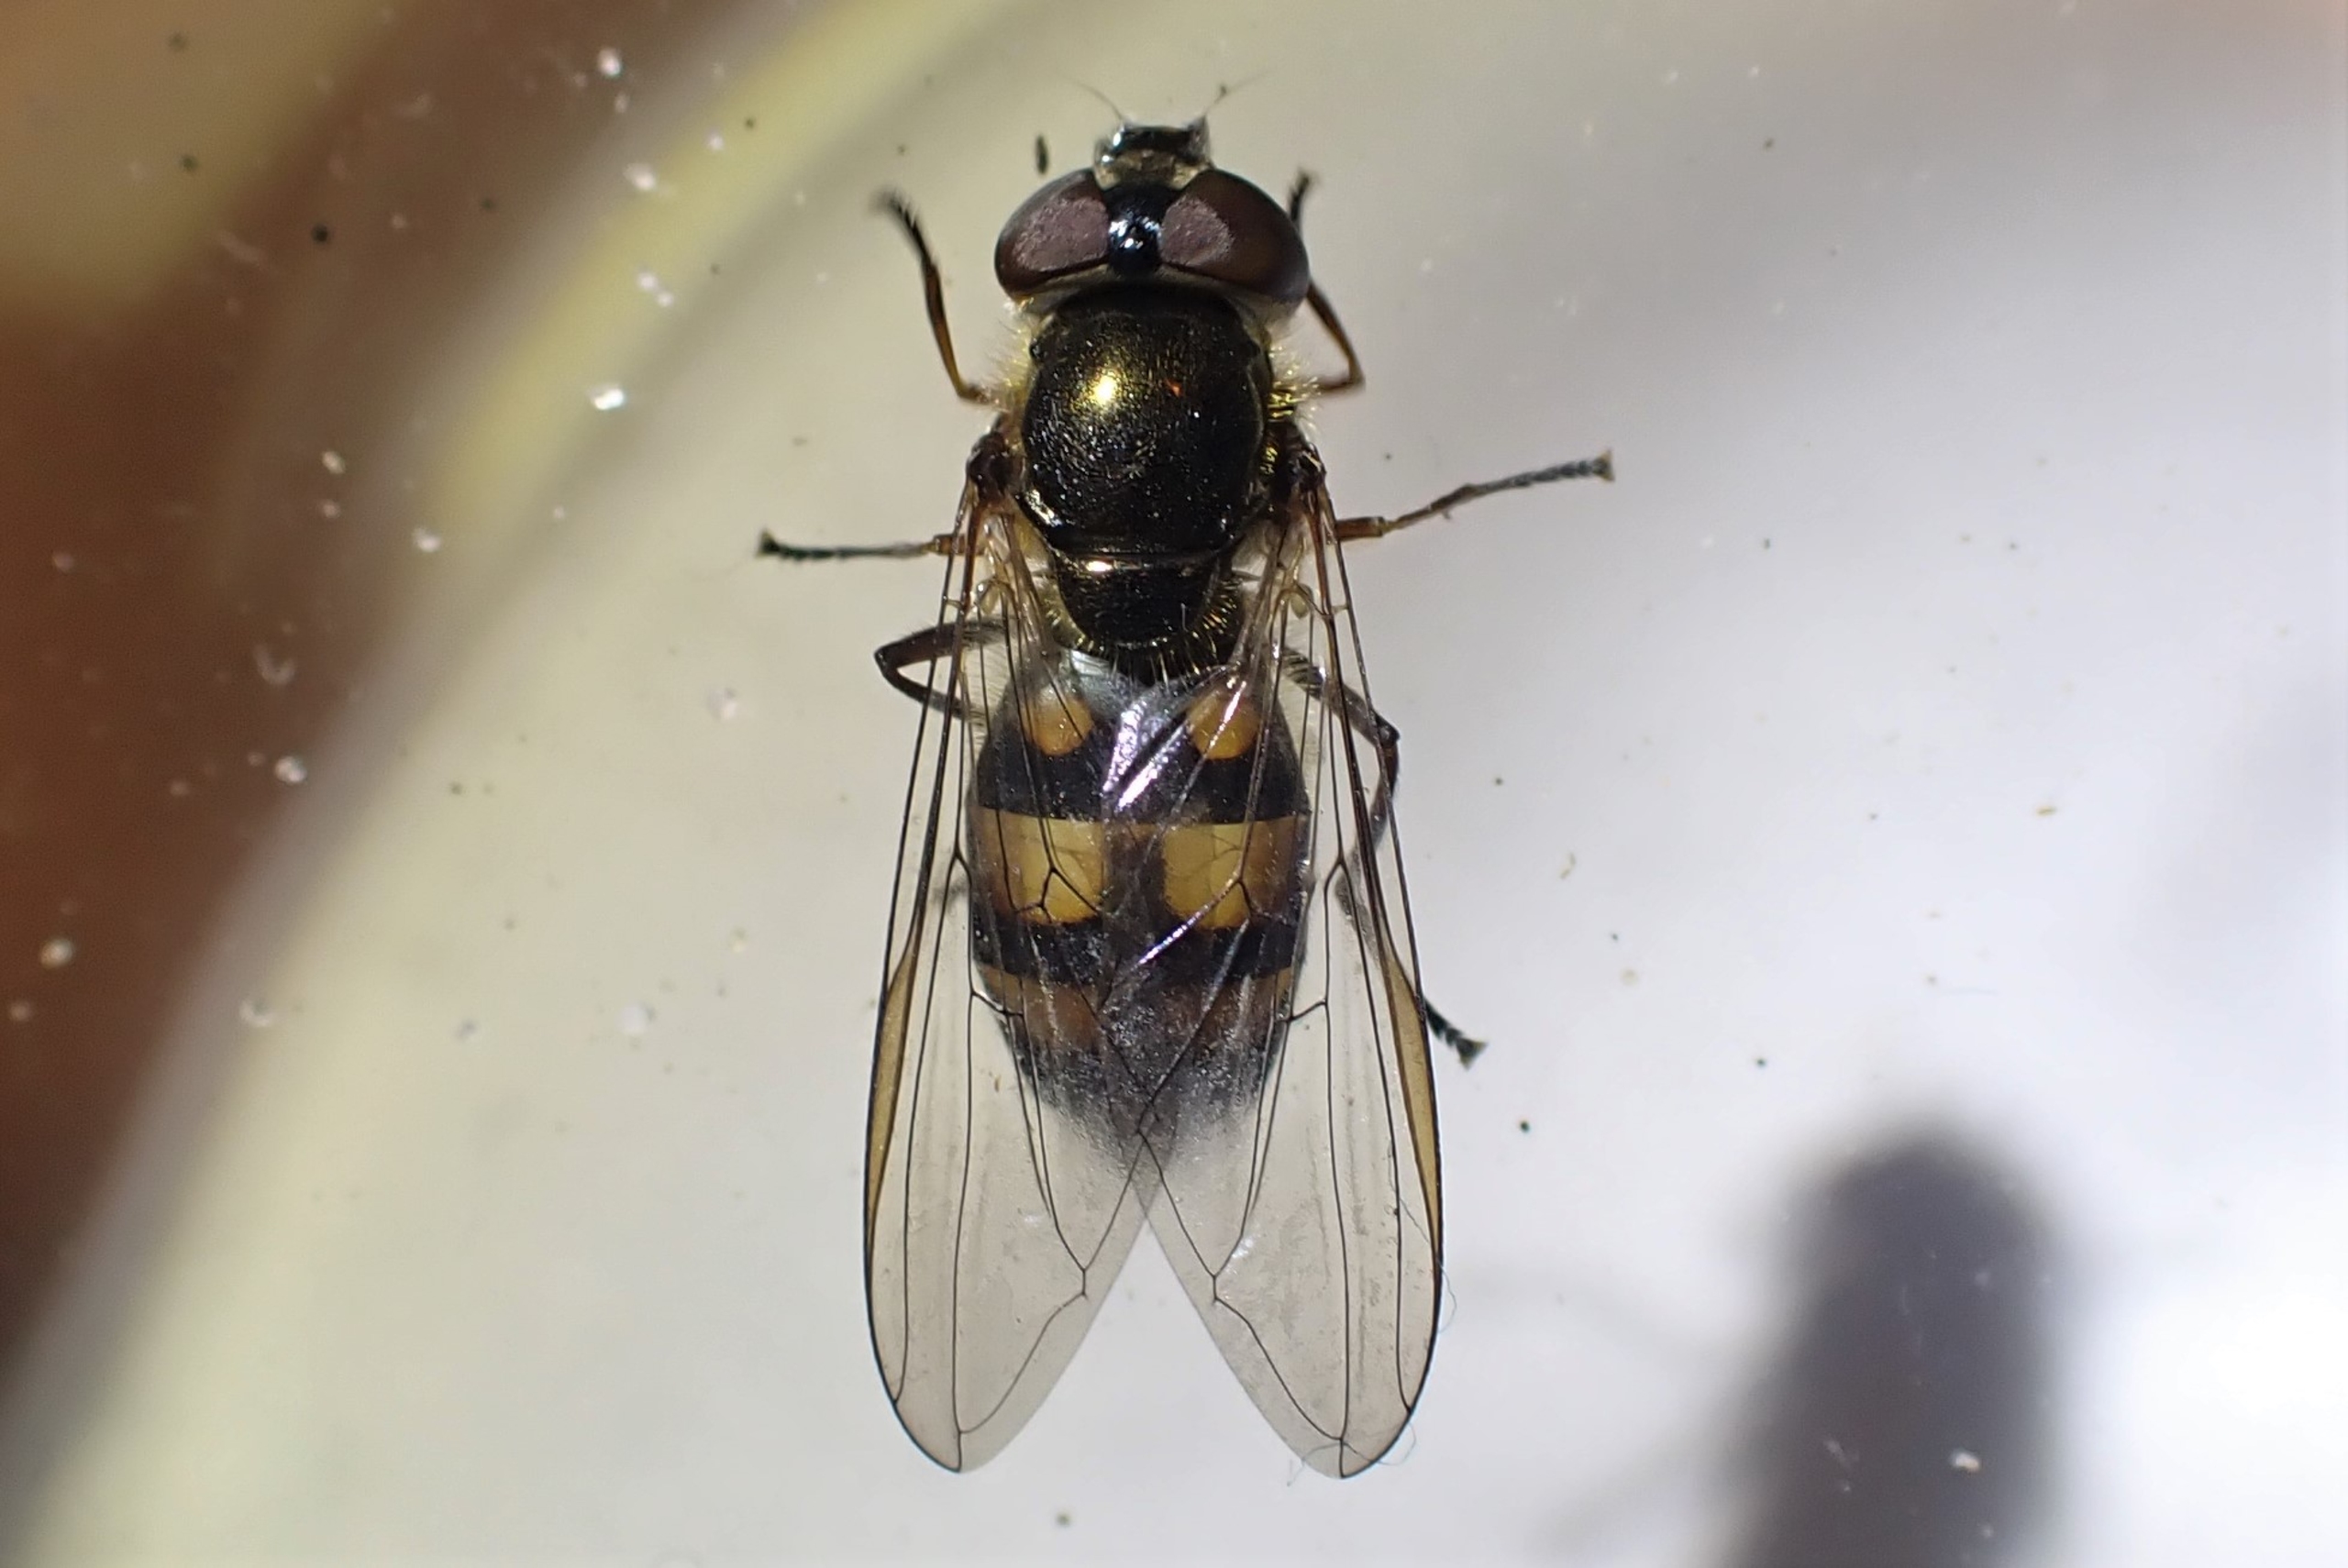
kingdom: Animalia
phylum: Arthropoda
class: Insecta
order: Diptera
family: Syrphidae
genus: Xanthandrus
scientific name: Xanthandrus comtus
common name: Gulhannet svirreflue
